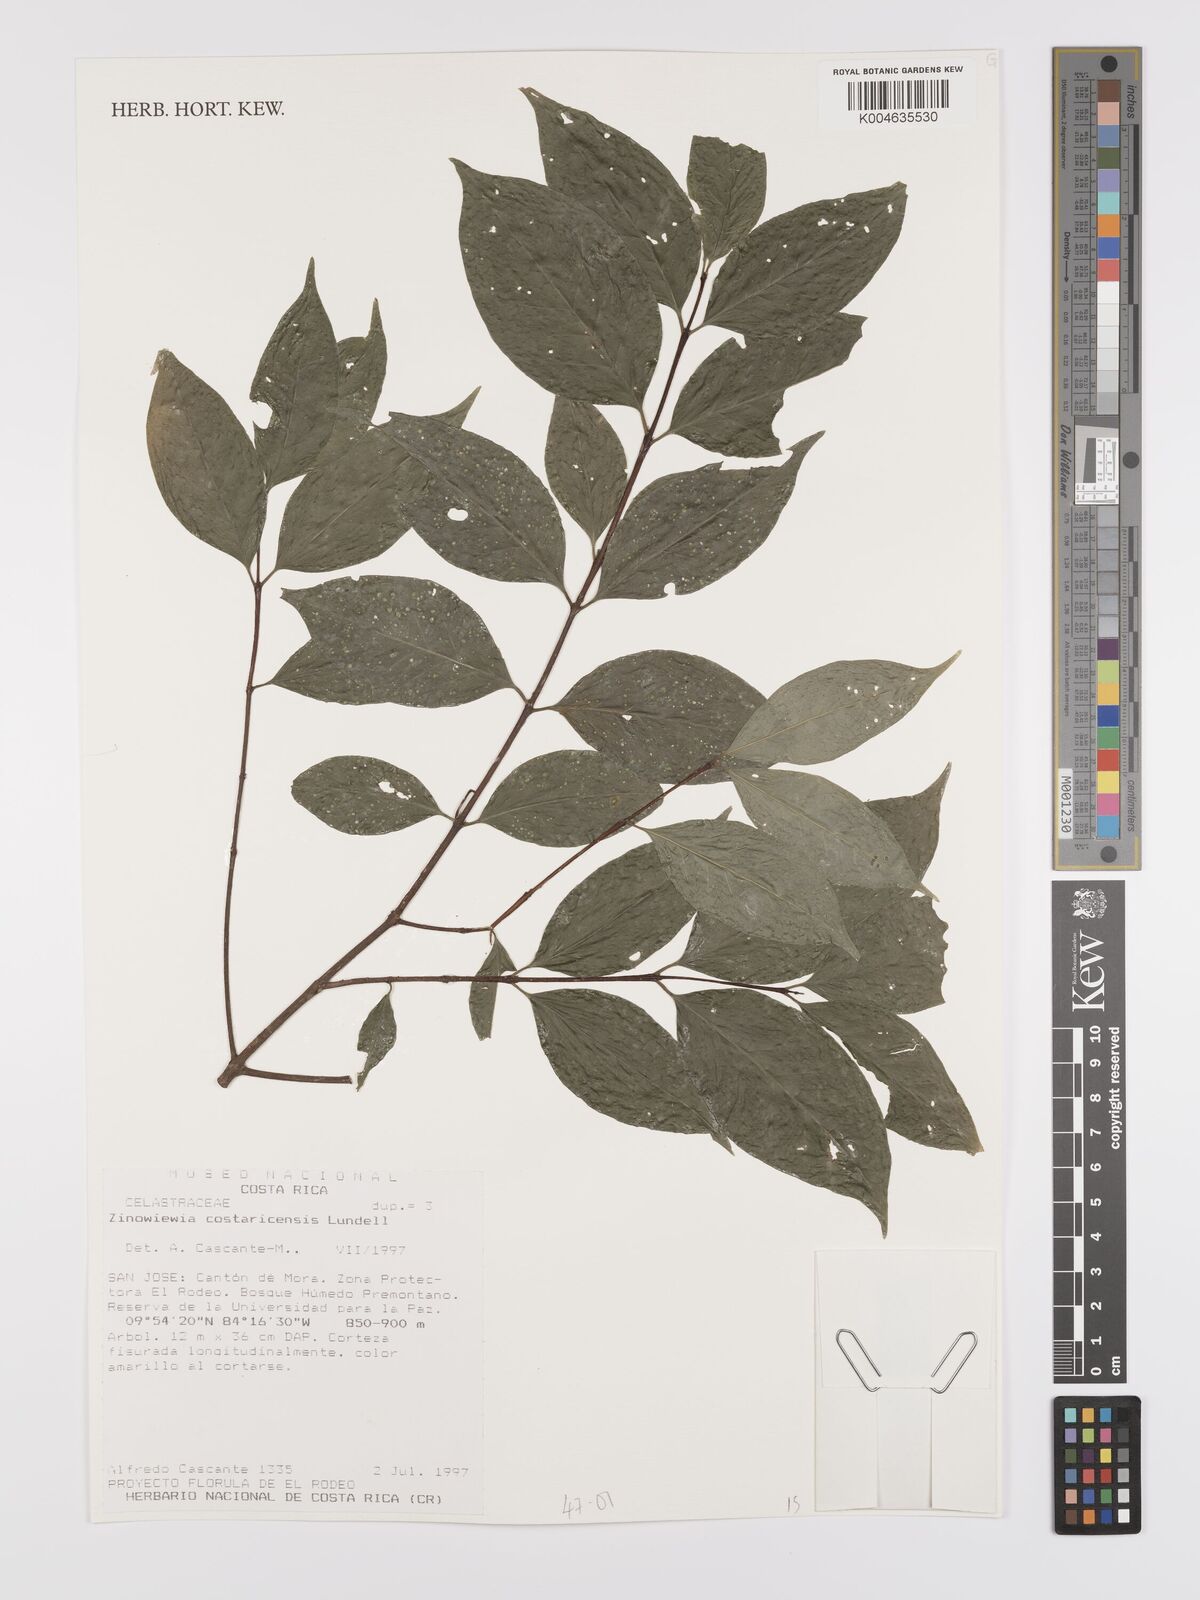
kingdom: Plantae
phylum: Tracheophyta
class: Magnoliopsida
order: Celastrales
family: Celastraceae
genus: Zinowiewia
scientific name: Zinowiewia integerrima
